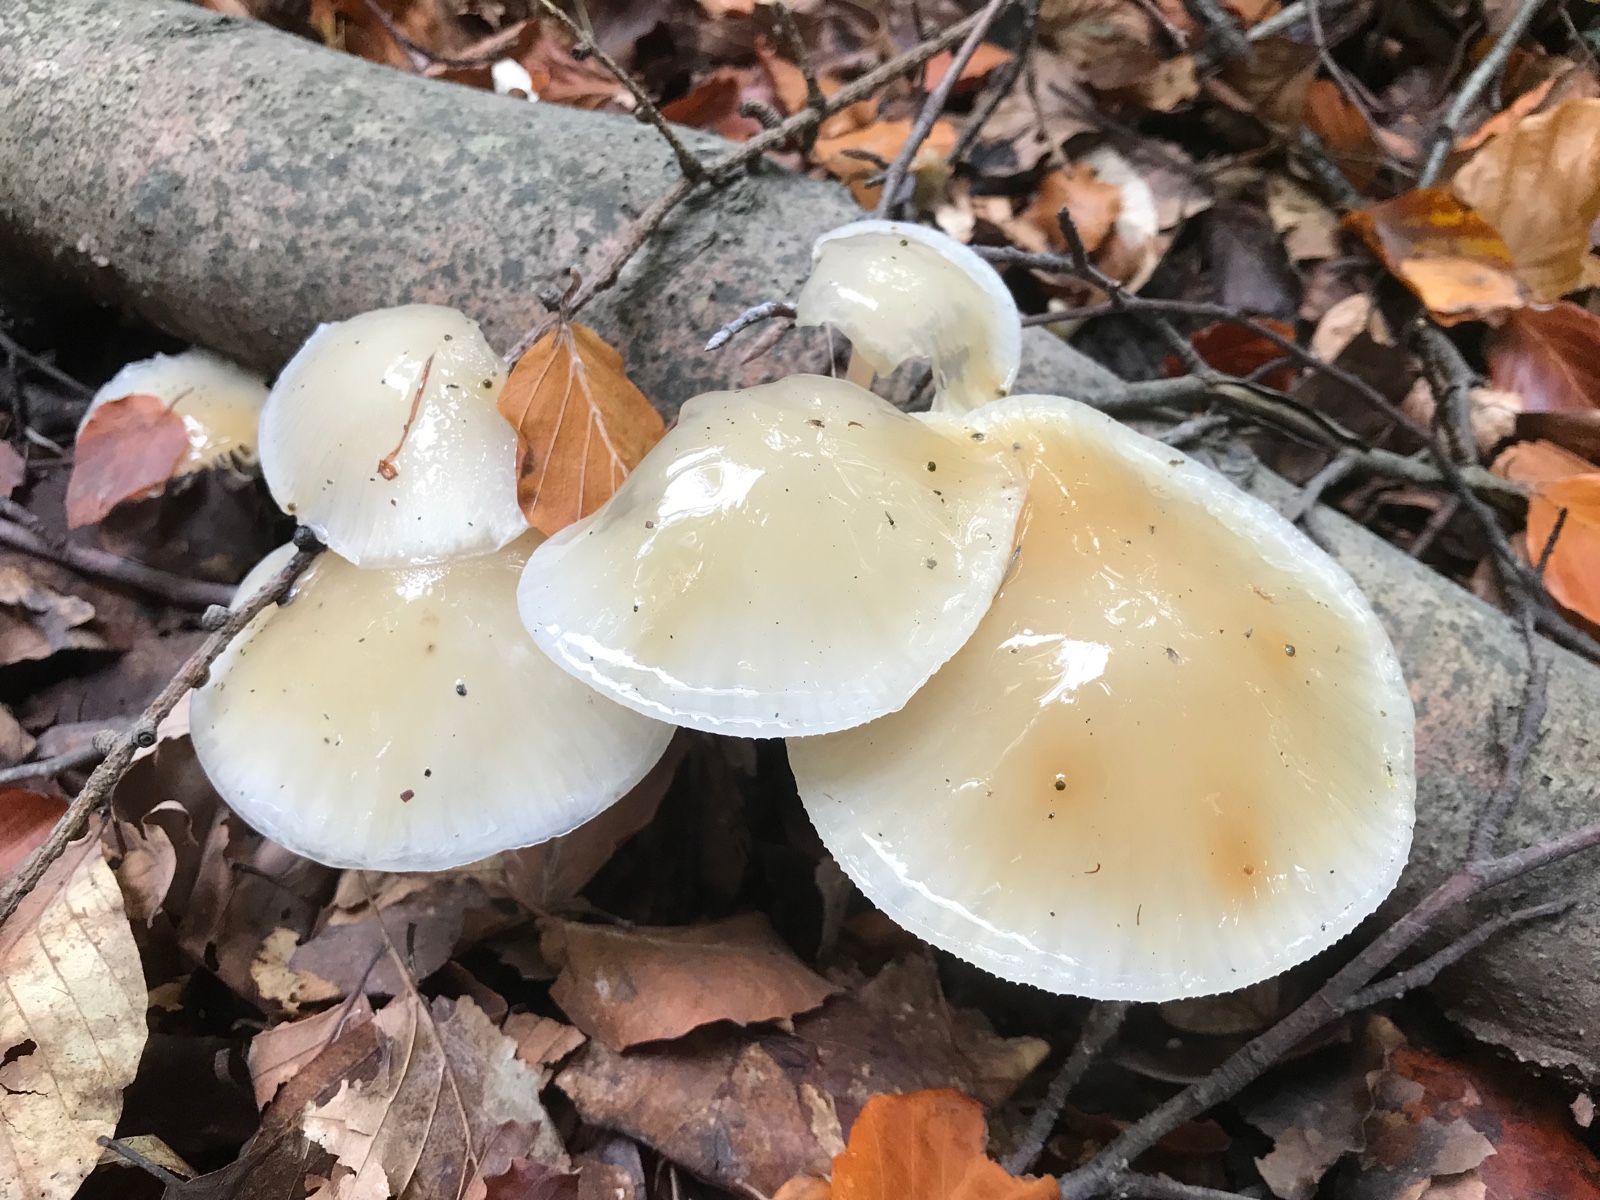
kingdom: Fungi
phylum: Basidiomycota
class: Agaricomycetes
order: Agaricales
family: Physalacriaceae
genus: Mucidula
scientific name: Mucidula mucida
